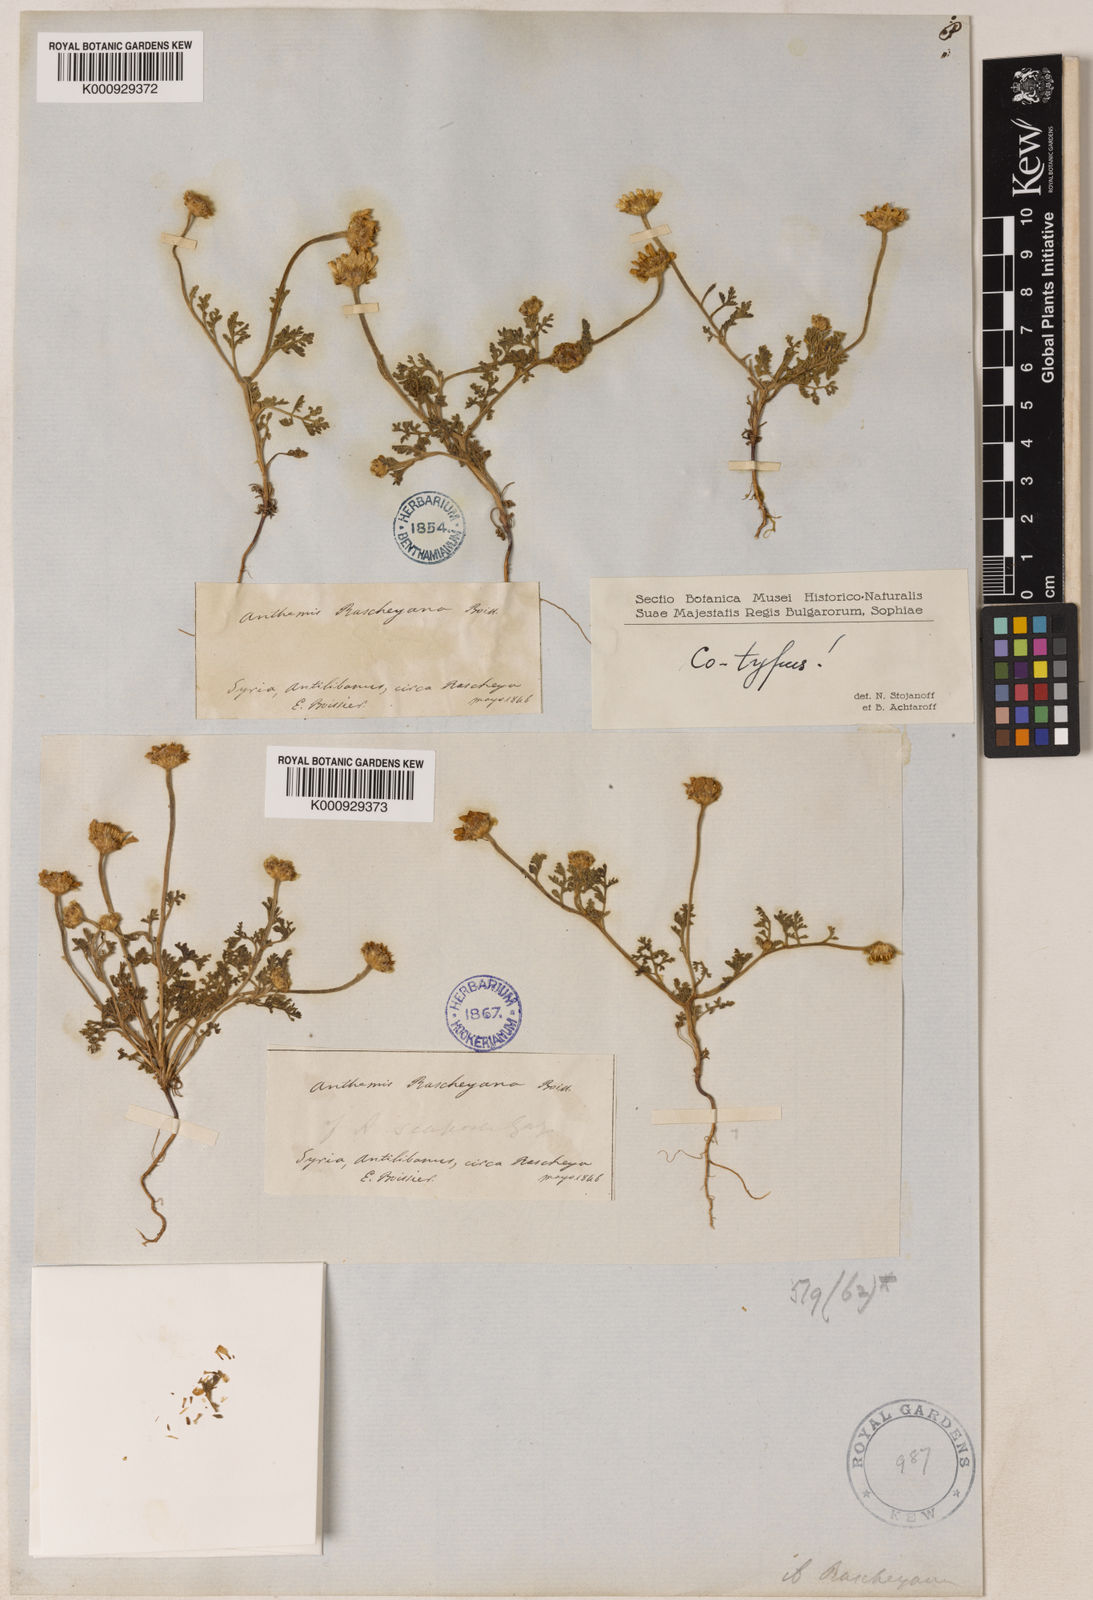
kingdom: Plantae
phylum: Tracheophyta
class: Magnoliopsida
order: Asterales
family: Asteraceae
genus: Anthemis
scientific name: Anthemis rascheyana
